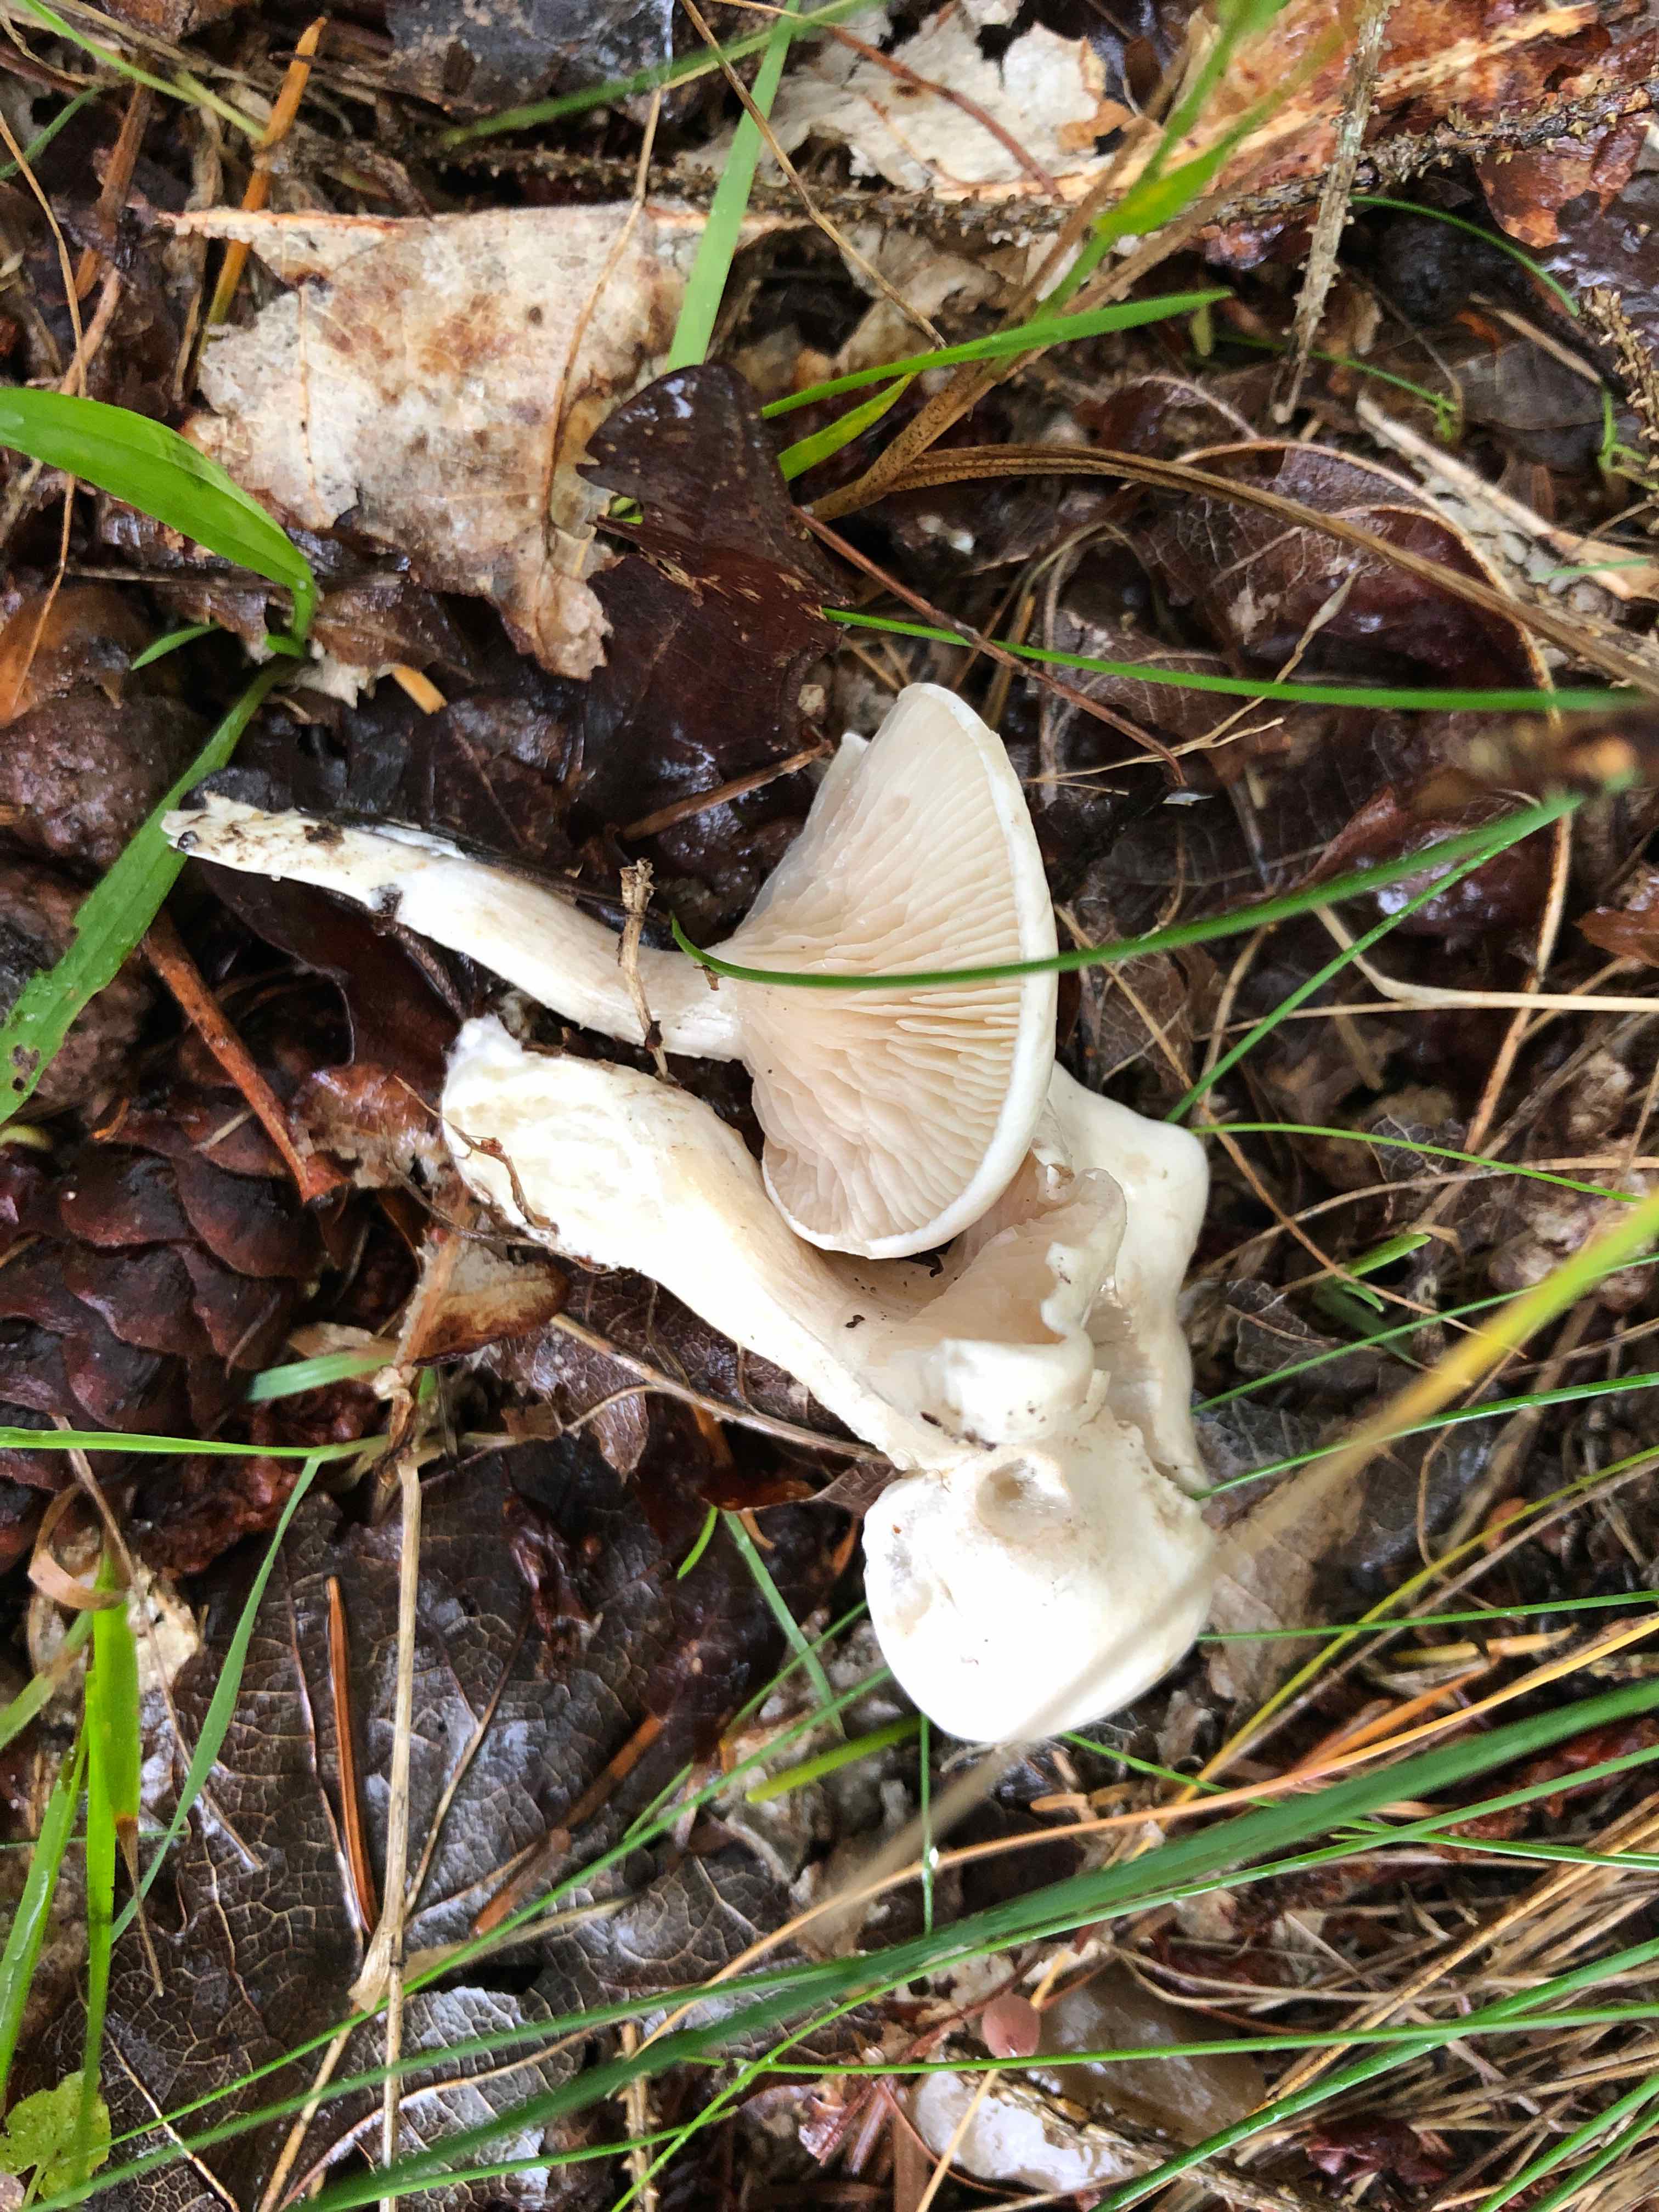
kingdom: Fungi
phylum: Basidiomycota
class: Agaricomycetes
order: Agaricales
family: Entolomataceae
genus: Clitopilus
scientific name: Clitopilus prunulus
